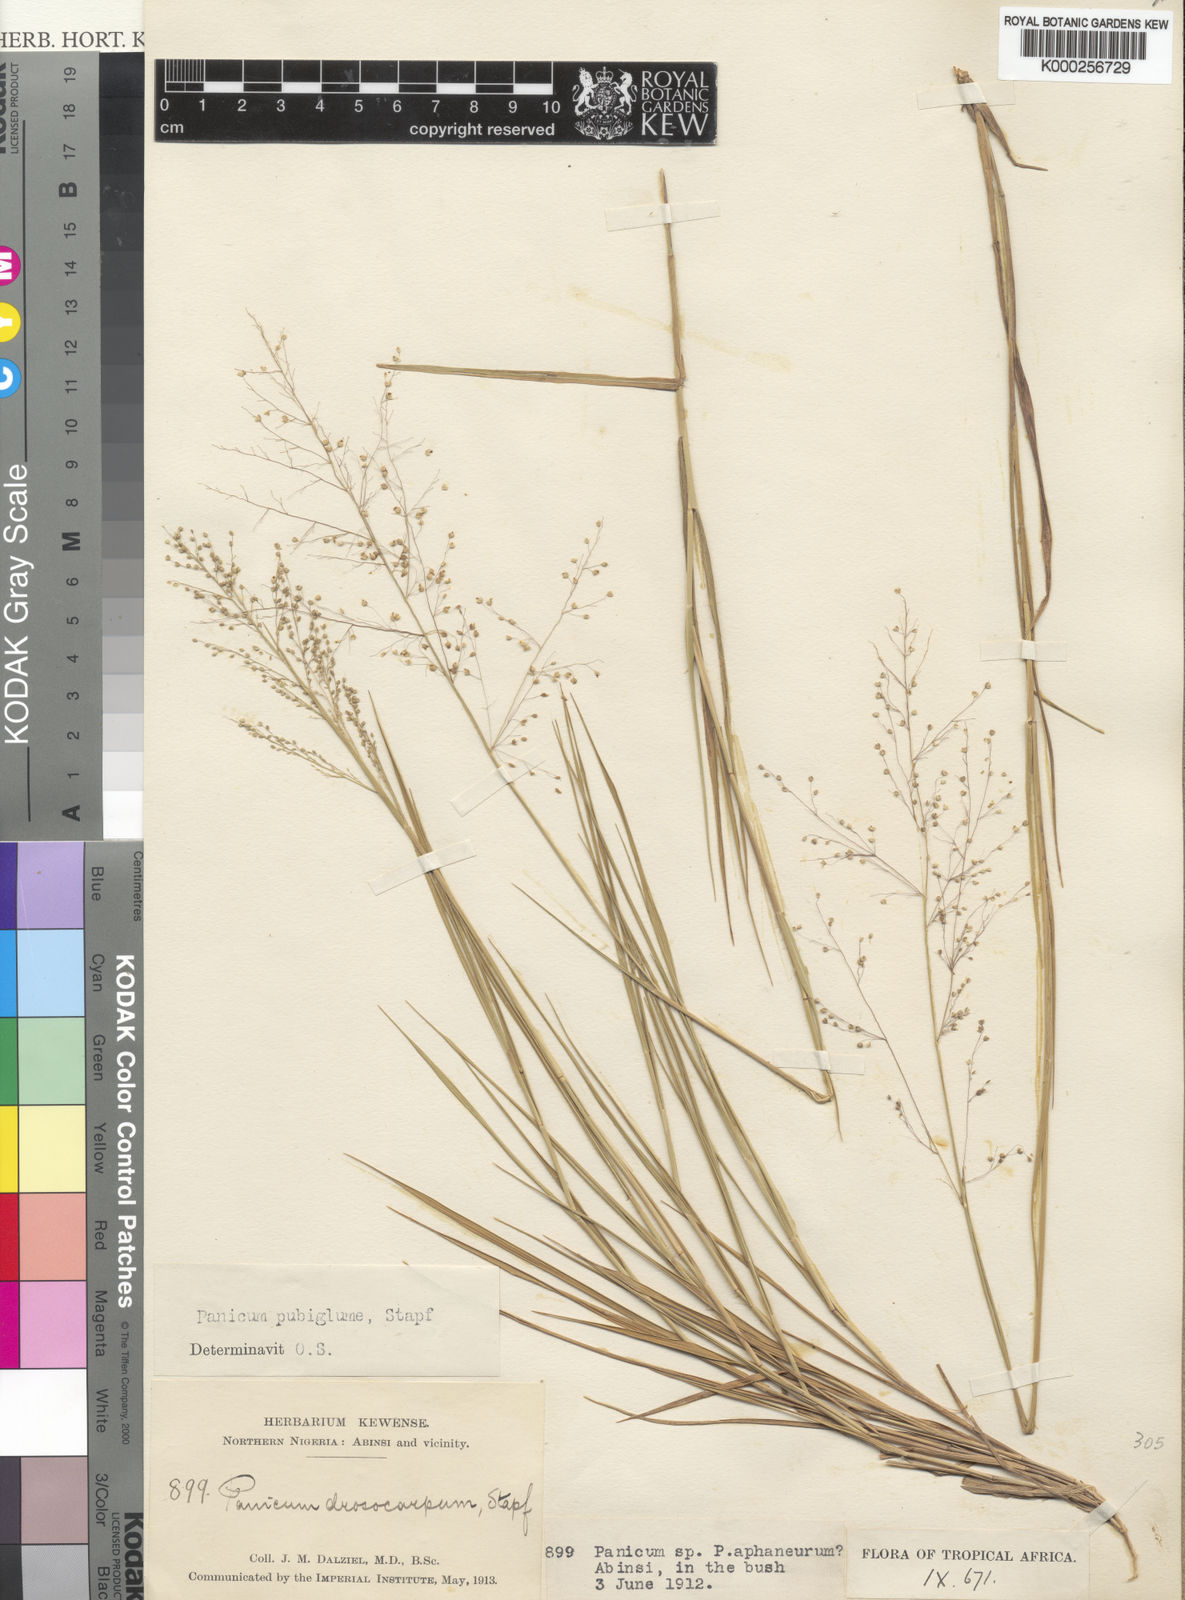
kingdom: Plantae
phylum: Tracheophyta
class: Liliopsida
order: Poales
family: Poaceae
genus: Trichanthecium
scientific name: Trichanthecium brazzavillense
